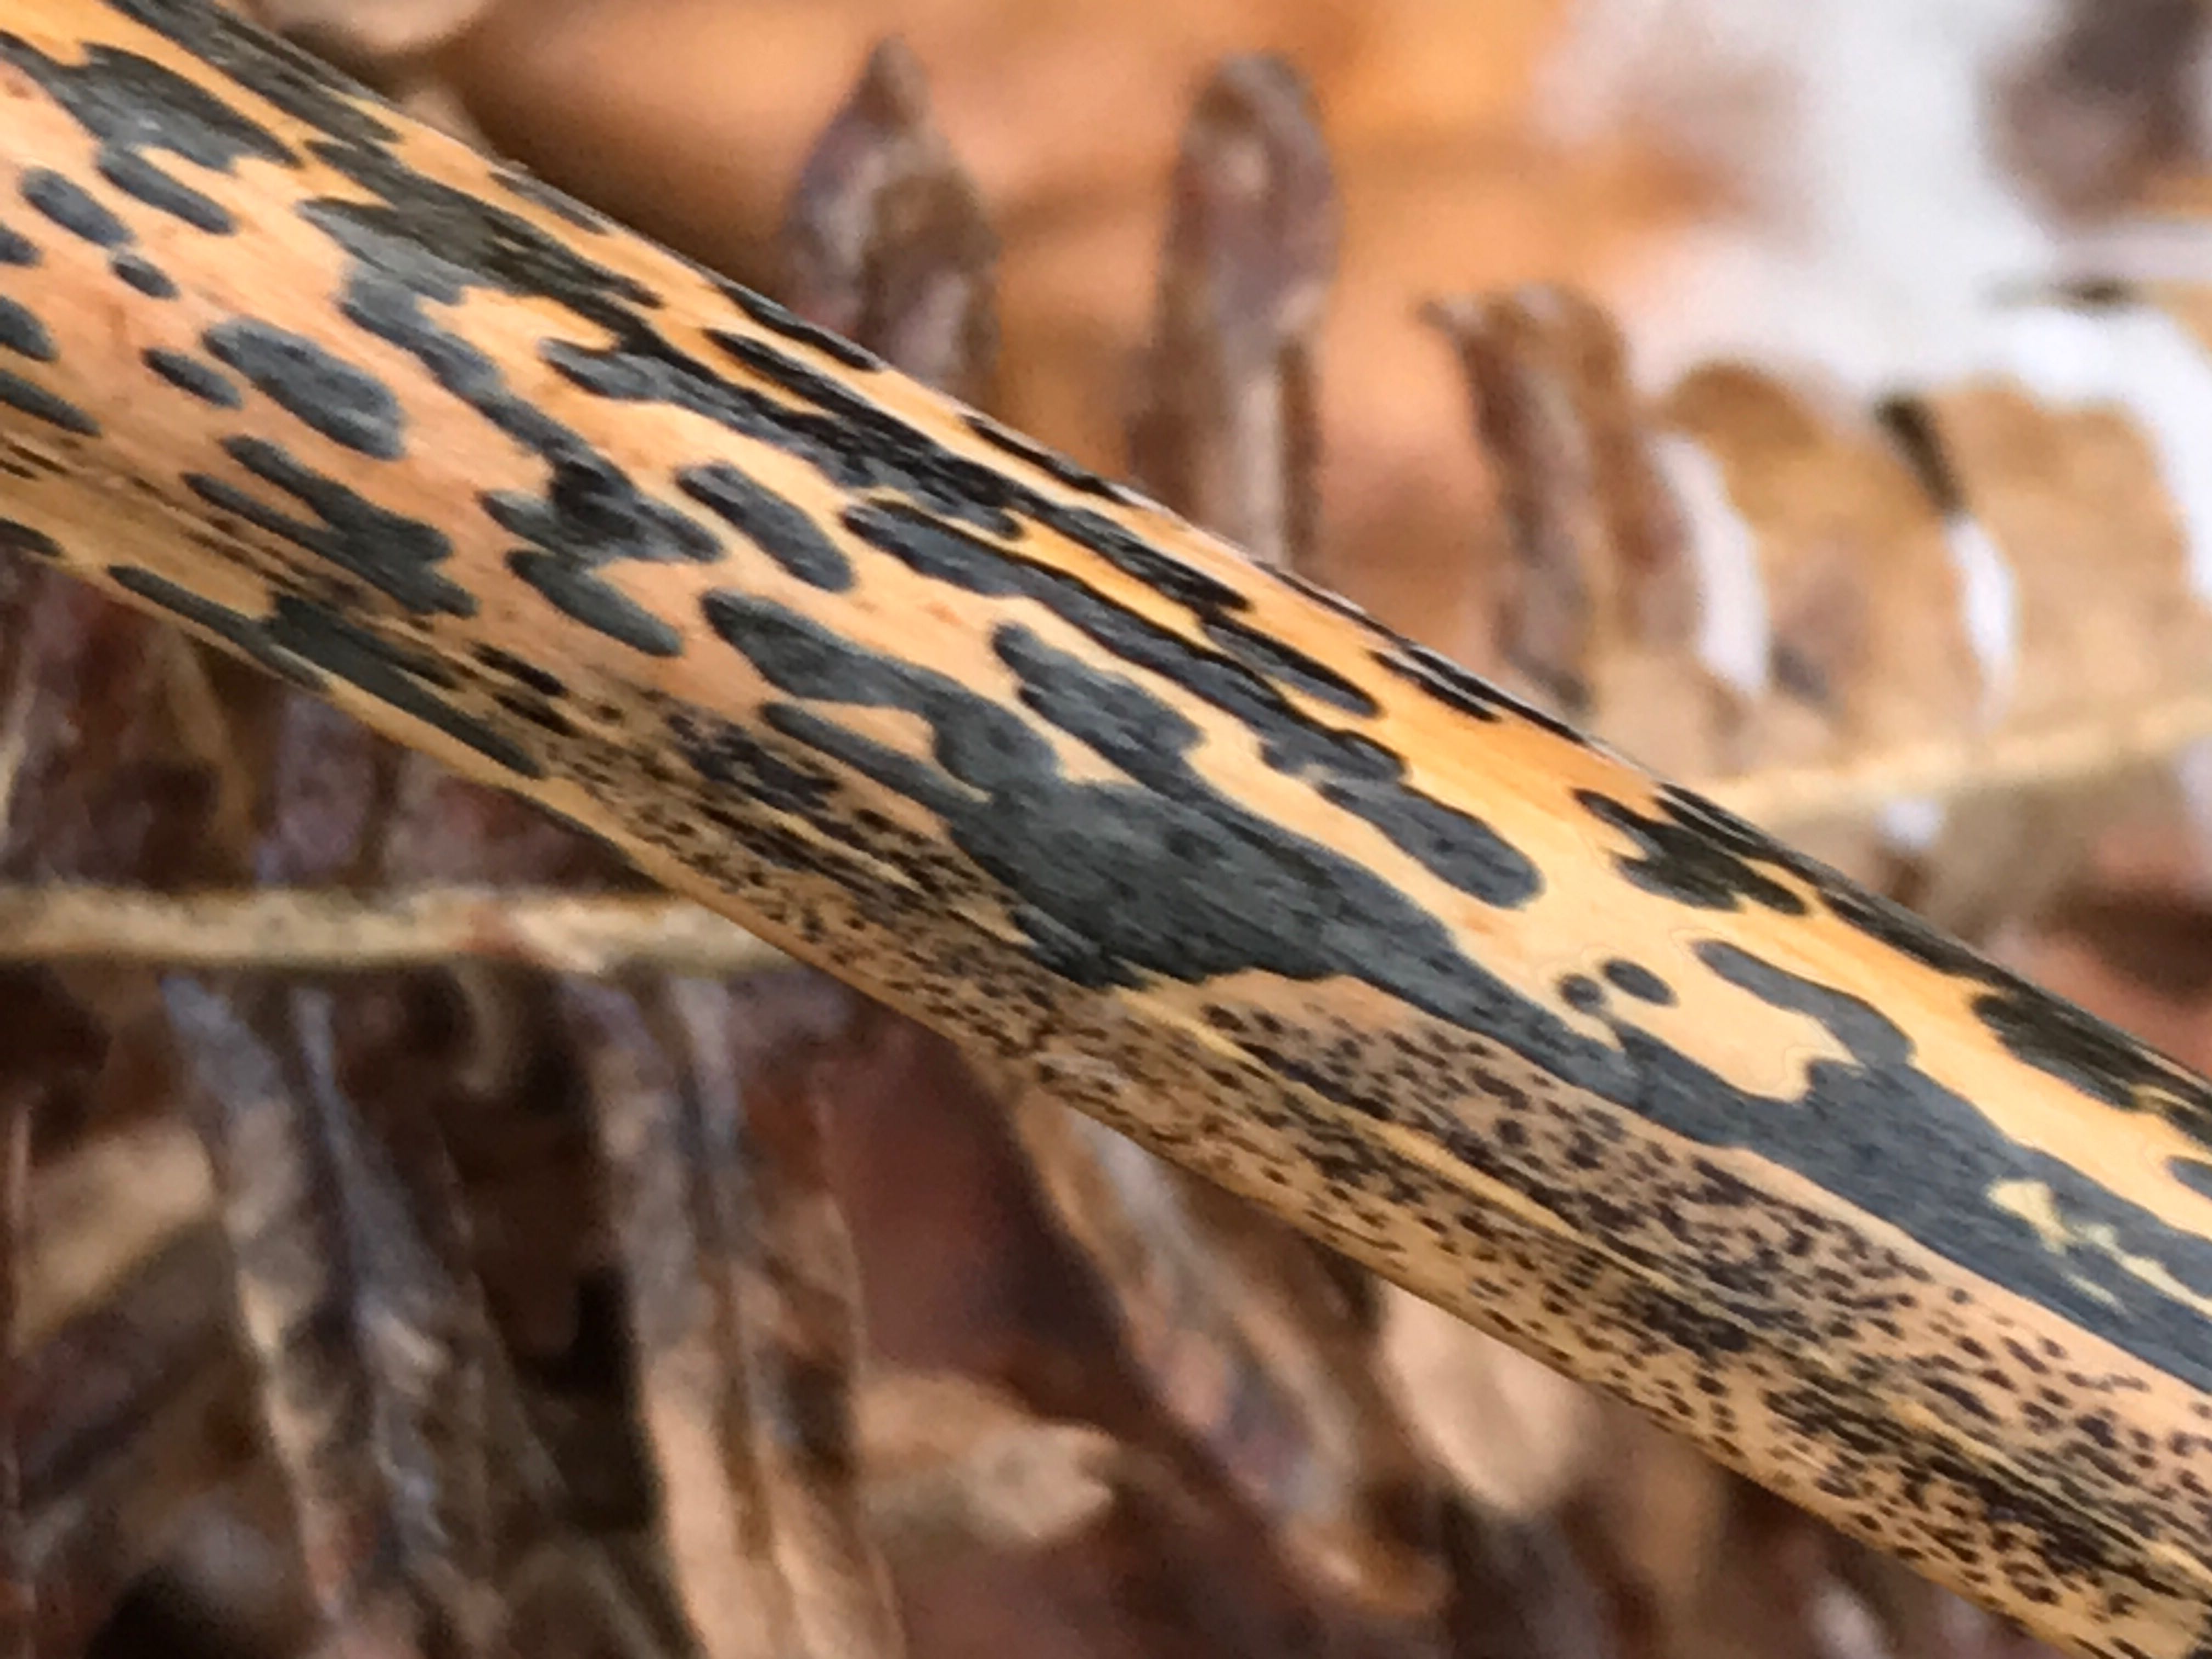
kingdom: Fungi
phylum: Ascomycota
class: Dothideomycetes
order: Pleosporales
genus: Rhopographus
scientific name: Rhopographus filicinus
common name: Bracken map
